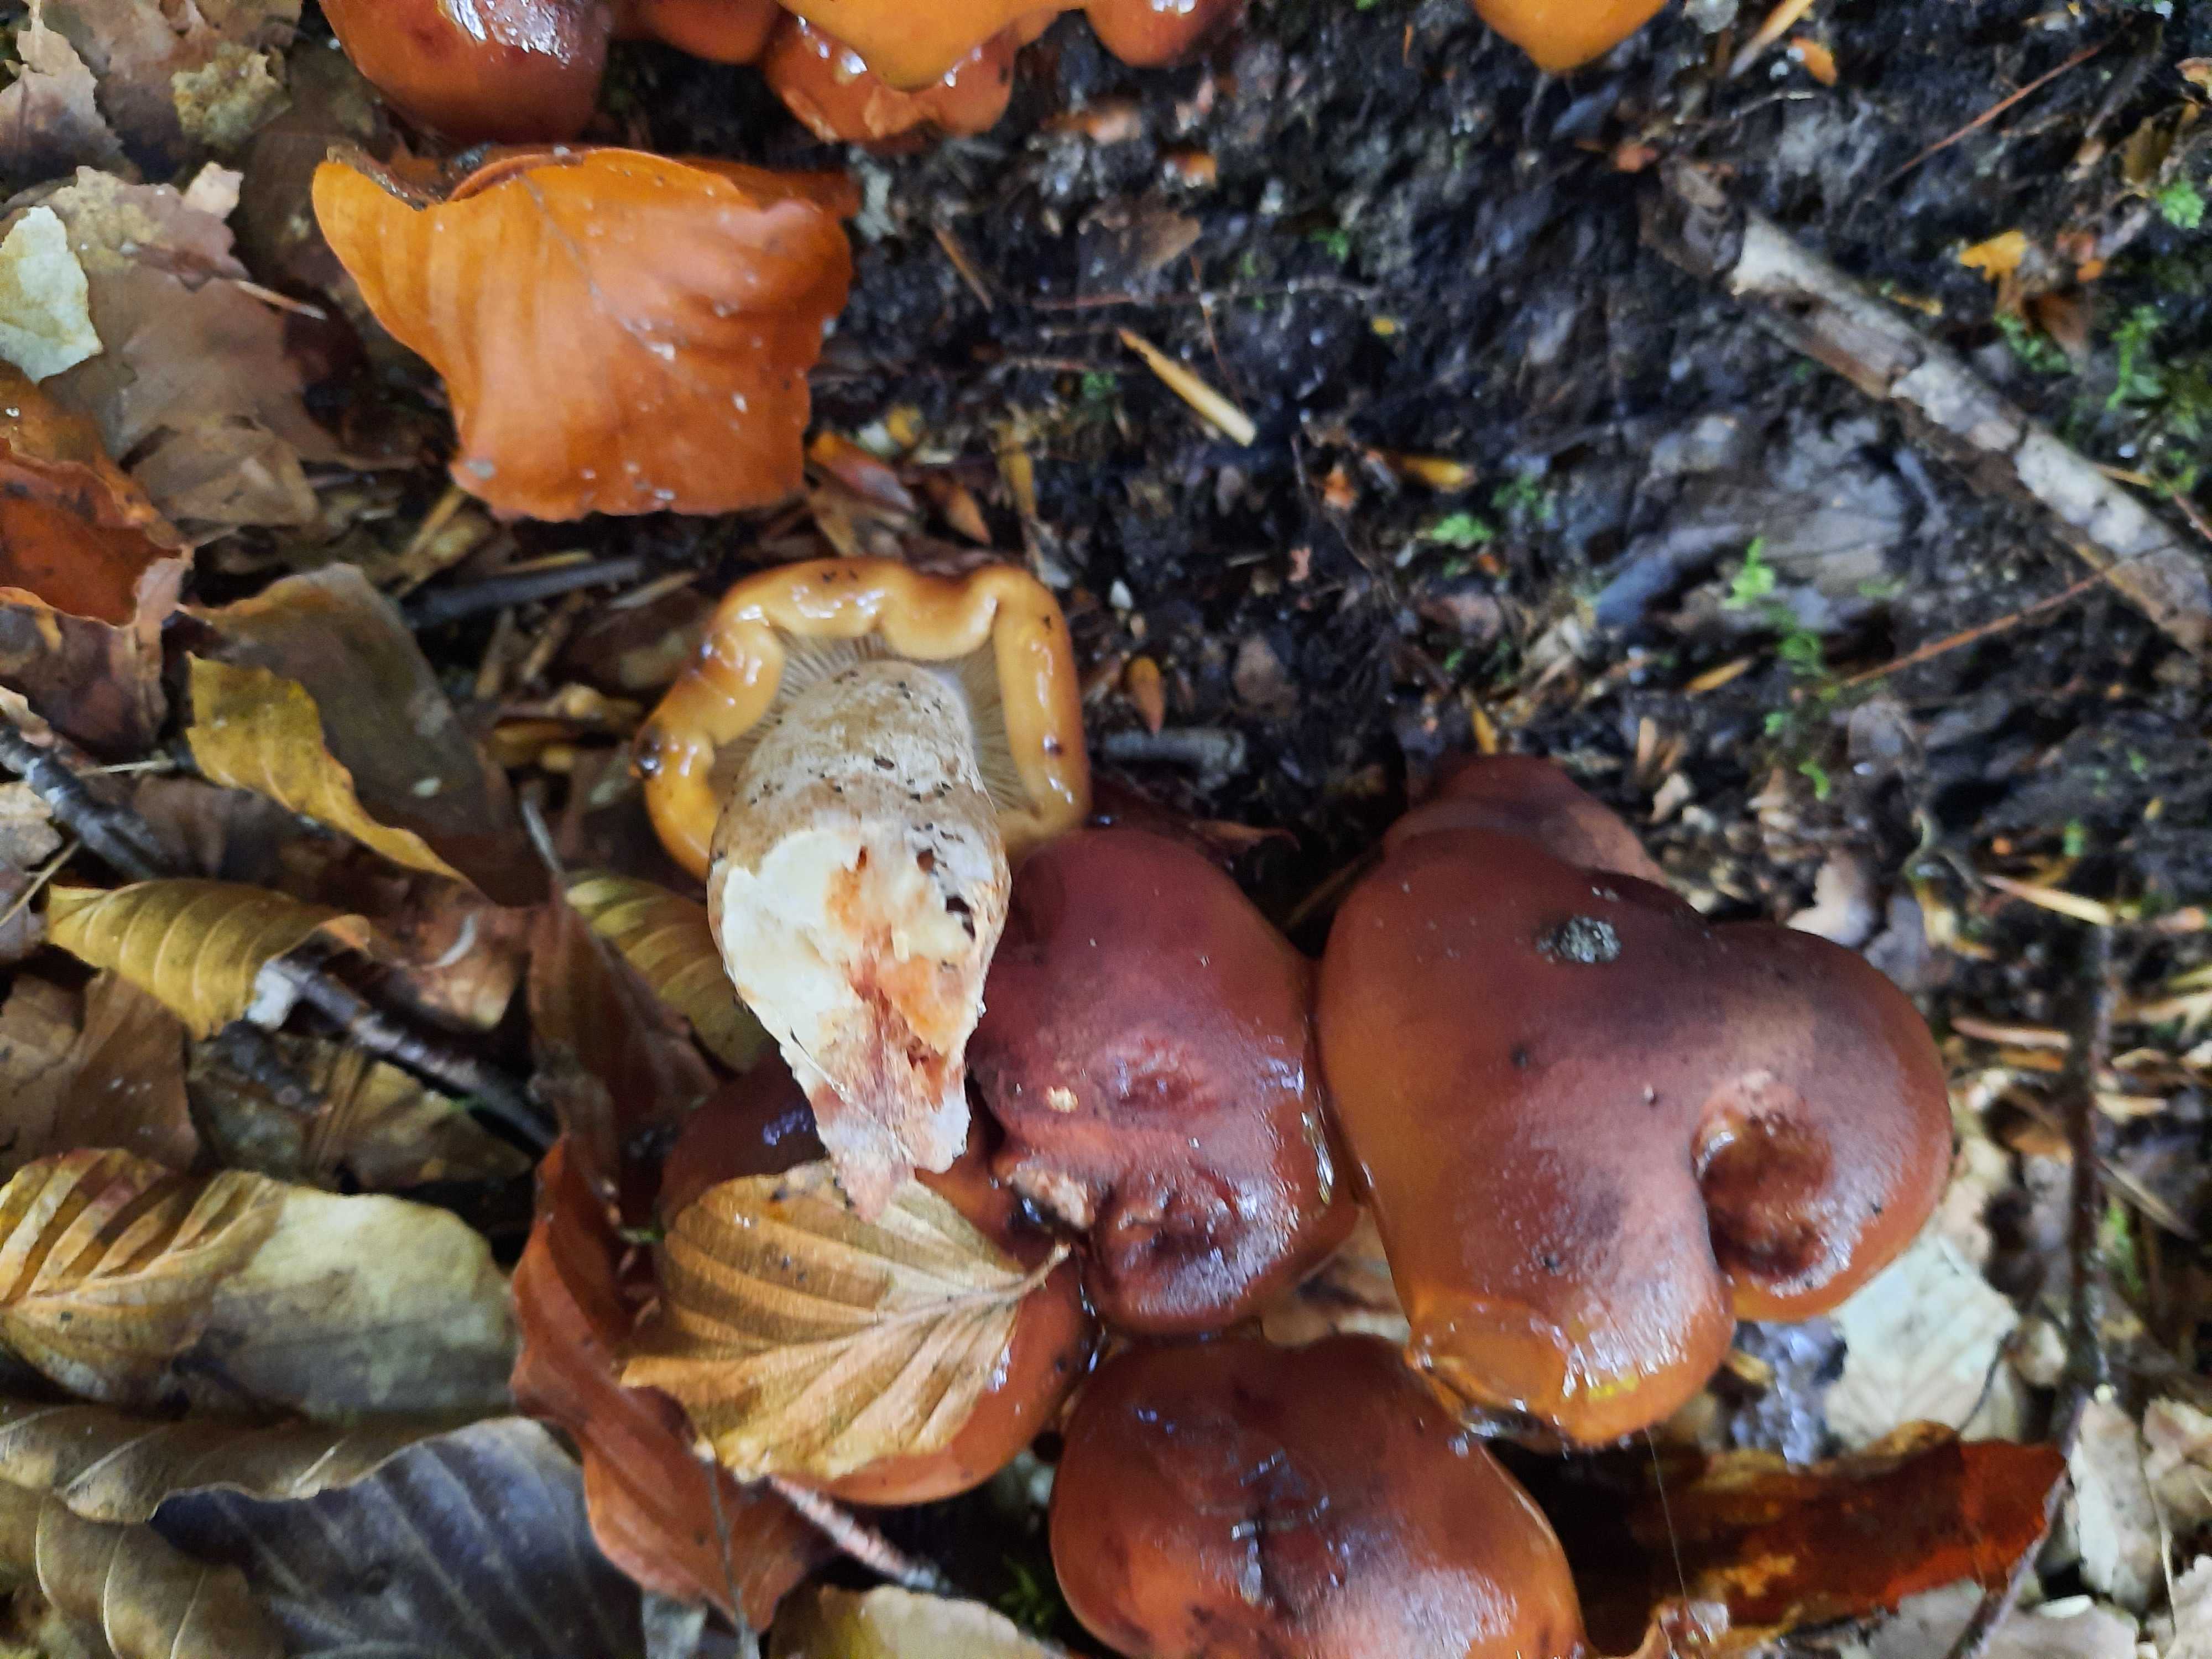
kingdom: Fungi
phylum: Basidiomycota
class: Agaricomycetes
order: Agaricales
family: Tricholomataceae
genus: Tricholoma
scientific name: Tricholoma ustale
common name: sveden ridderhat
